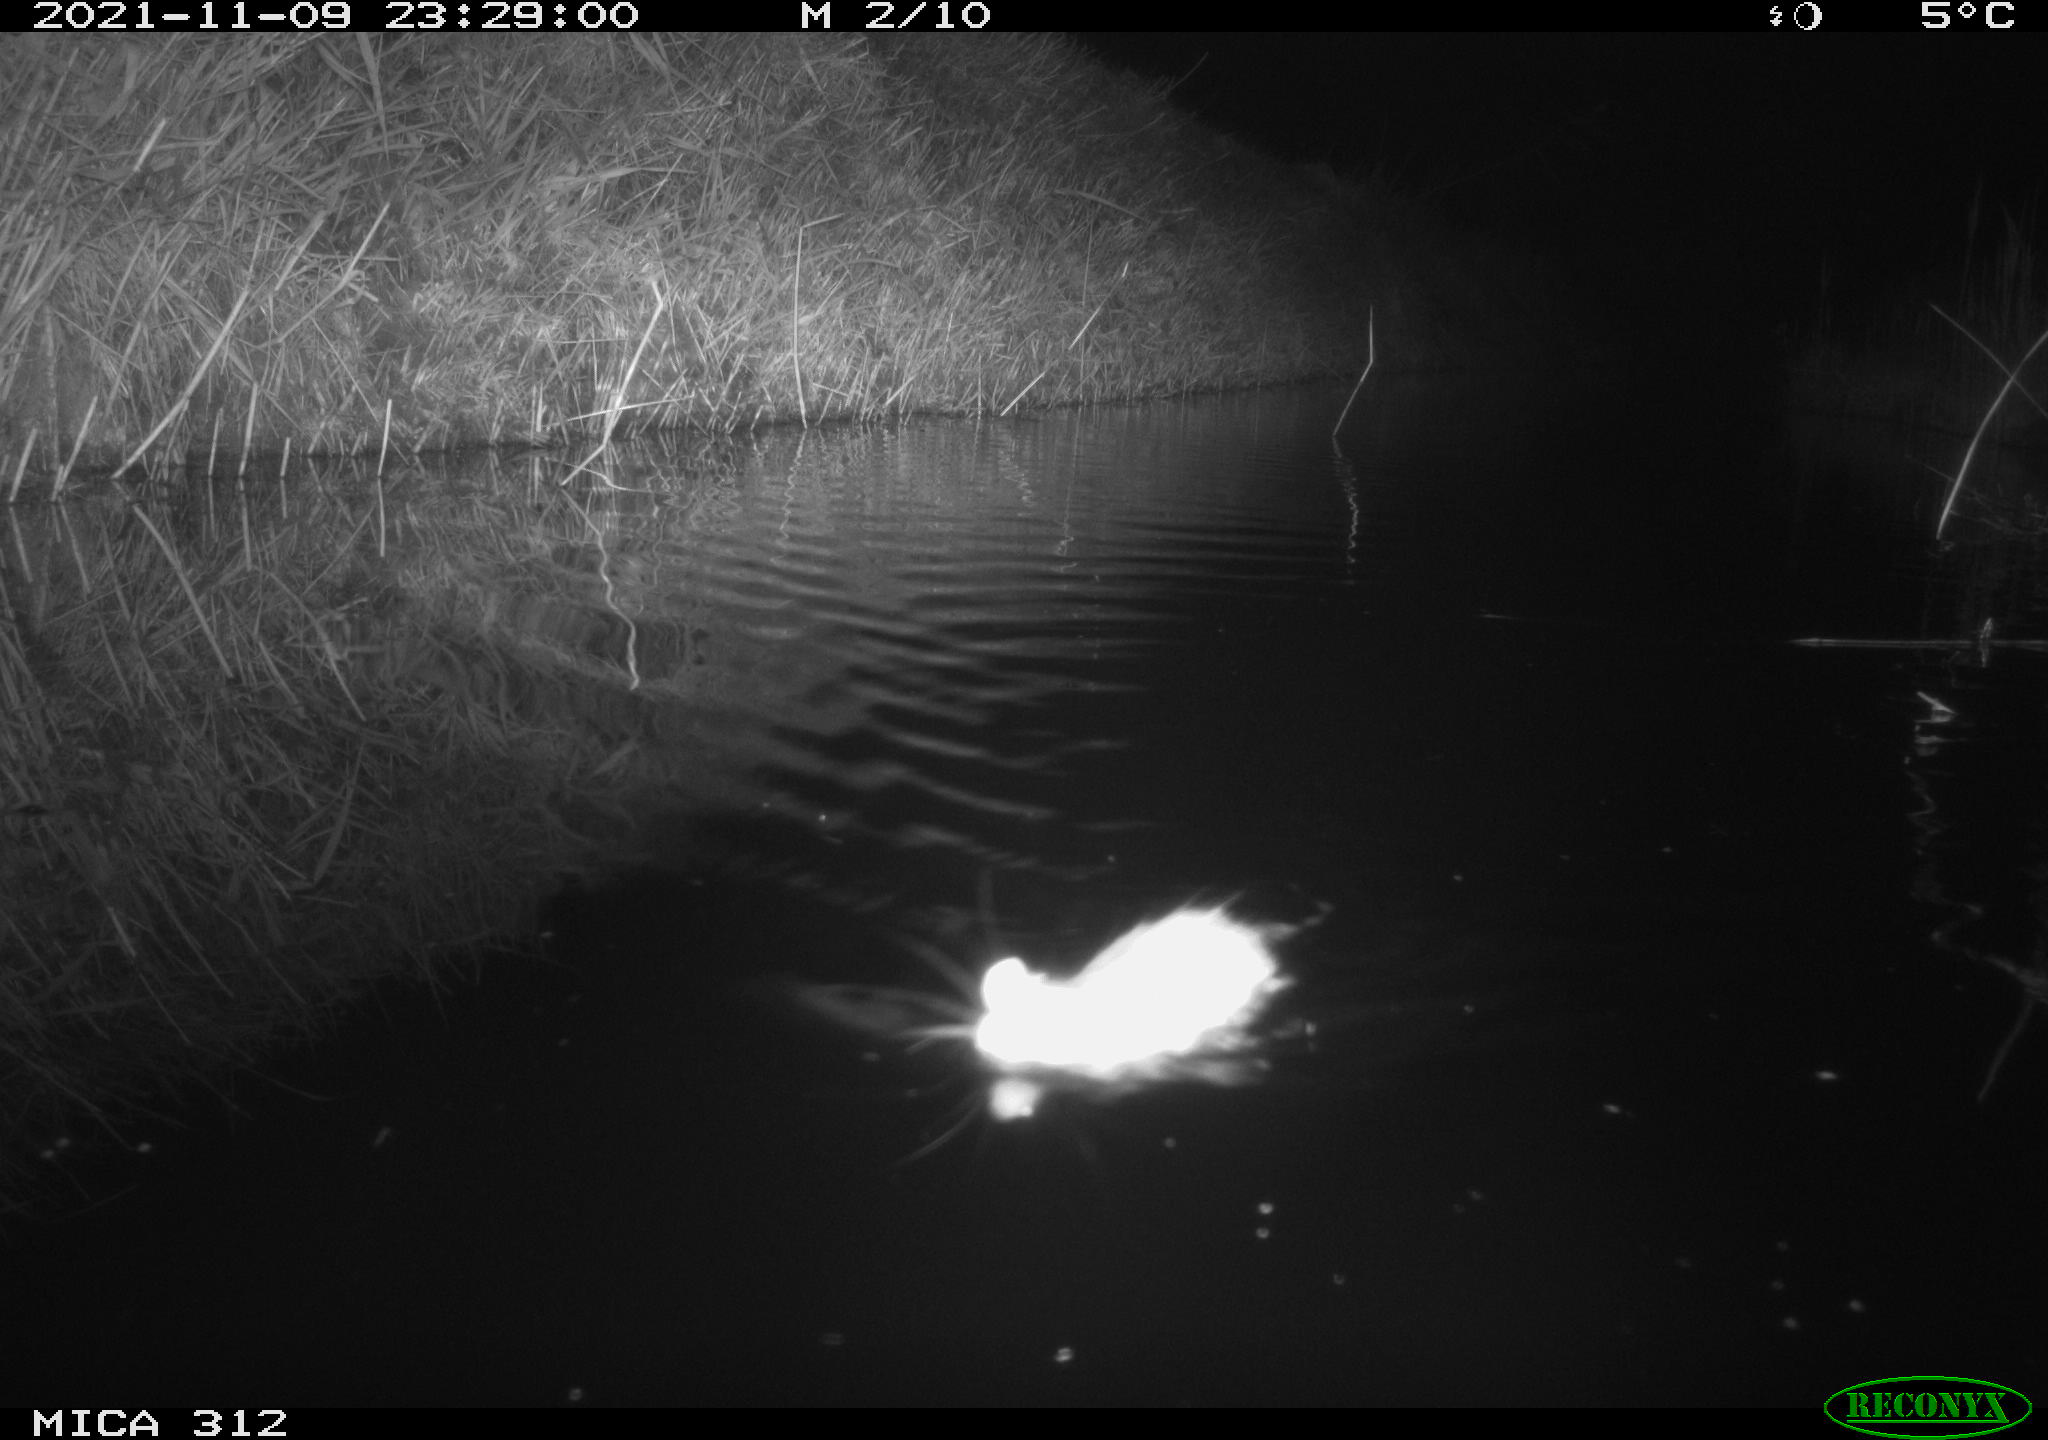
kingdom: Animalia
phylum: Chordata
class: Mammalia
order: Rodentia
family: Muridae
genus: Rattus
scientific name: Rattus norvegicus
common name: Brown rat
